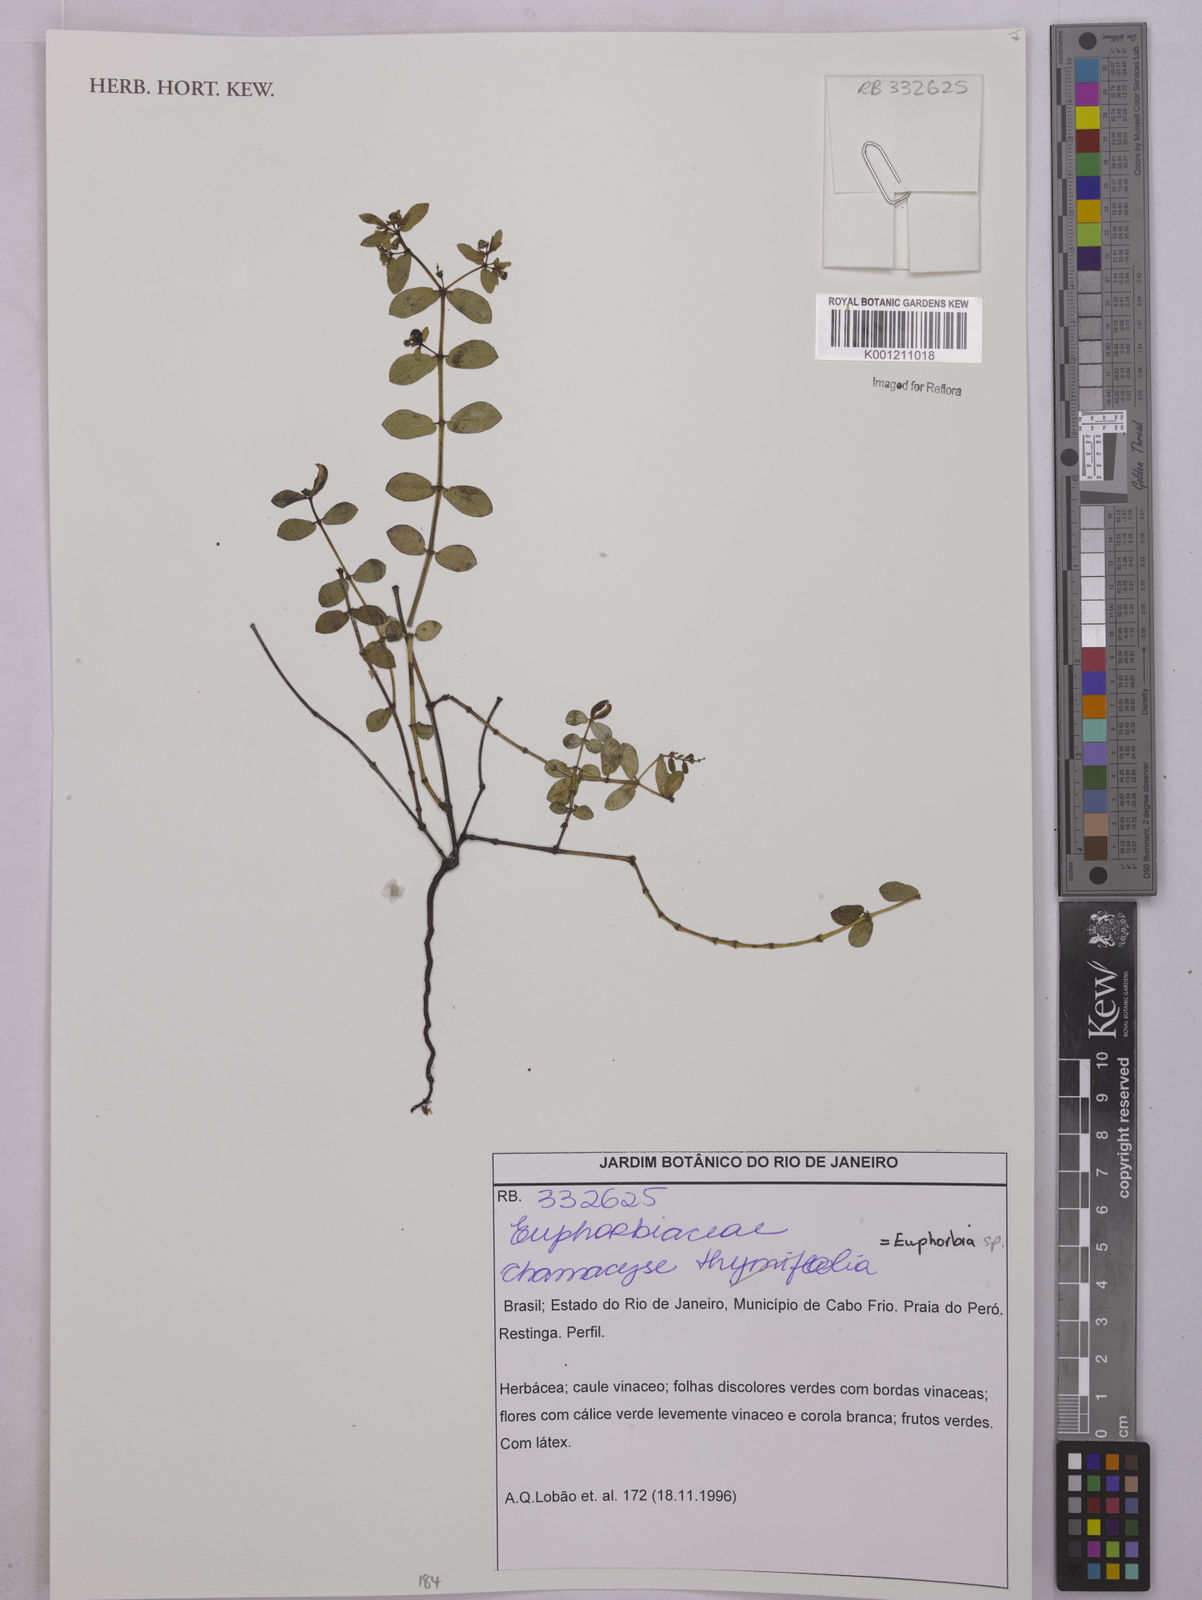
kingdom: Plantae
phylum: Tracheophyta
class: Magnoliopsida
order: Malpighiales
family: Euphorbiaceae
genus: Euphorbia
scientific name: Euphorbia
